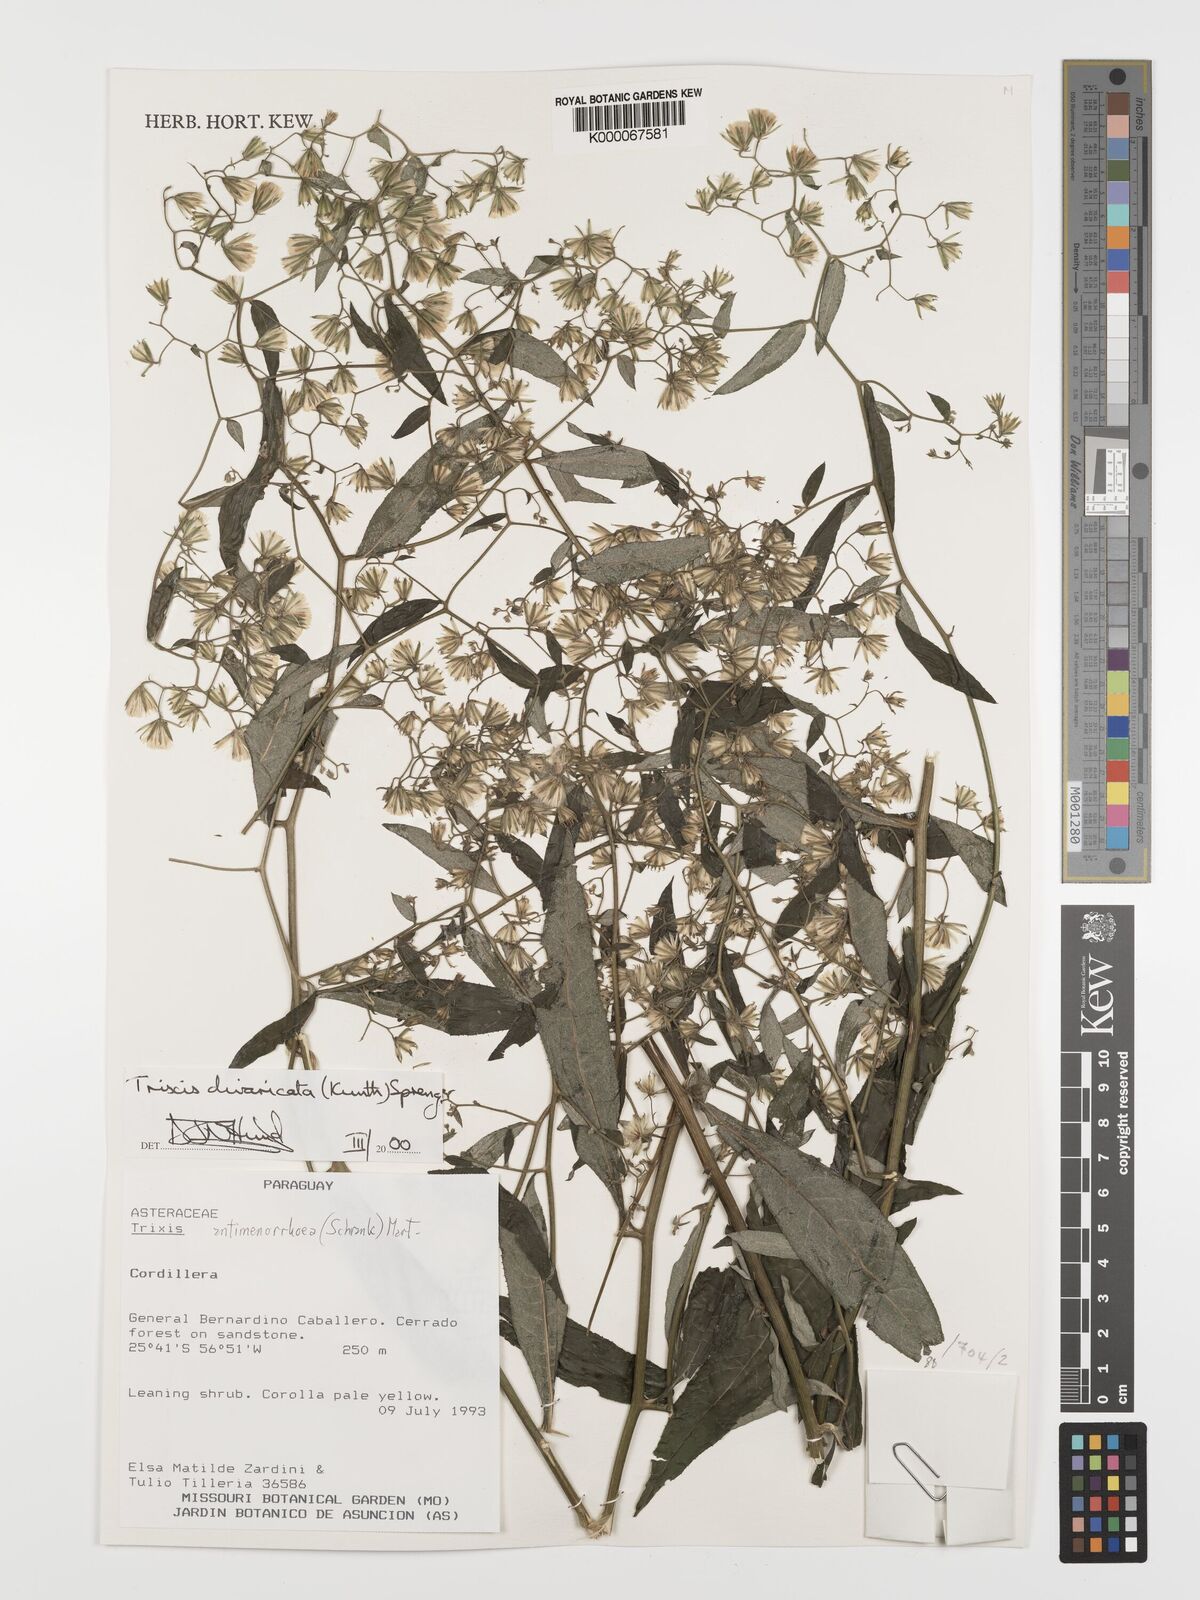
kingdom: Plantae
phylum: Tracheophyta
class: Magnoliopsida
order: Asterales
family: Asteraceae
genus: Trixis
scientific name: Trixis divaricata
